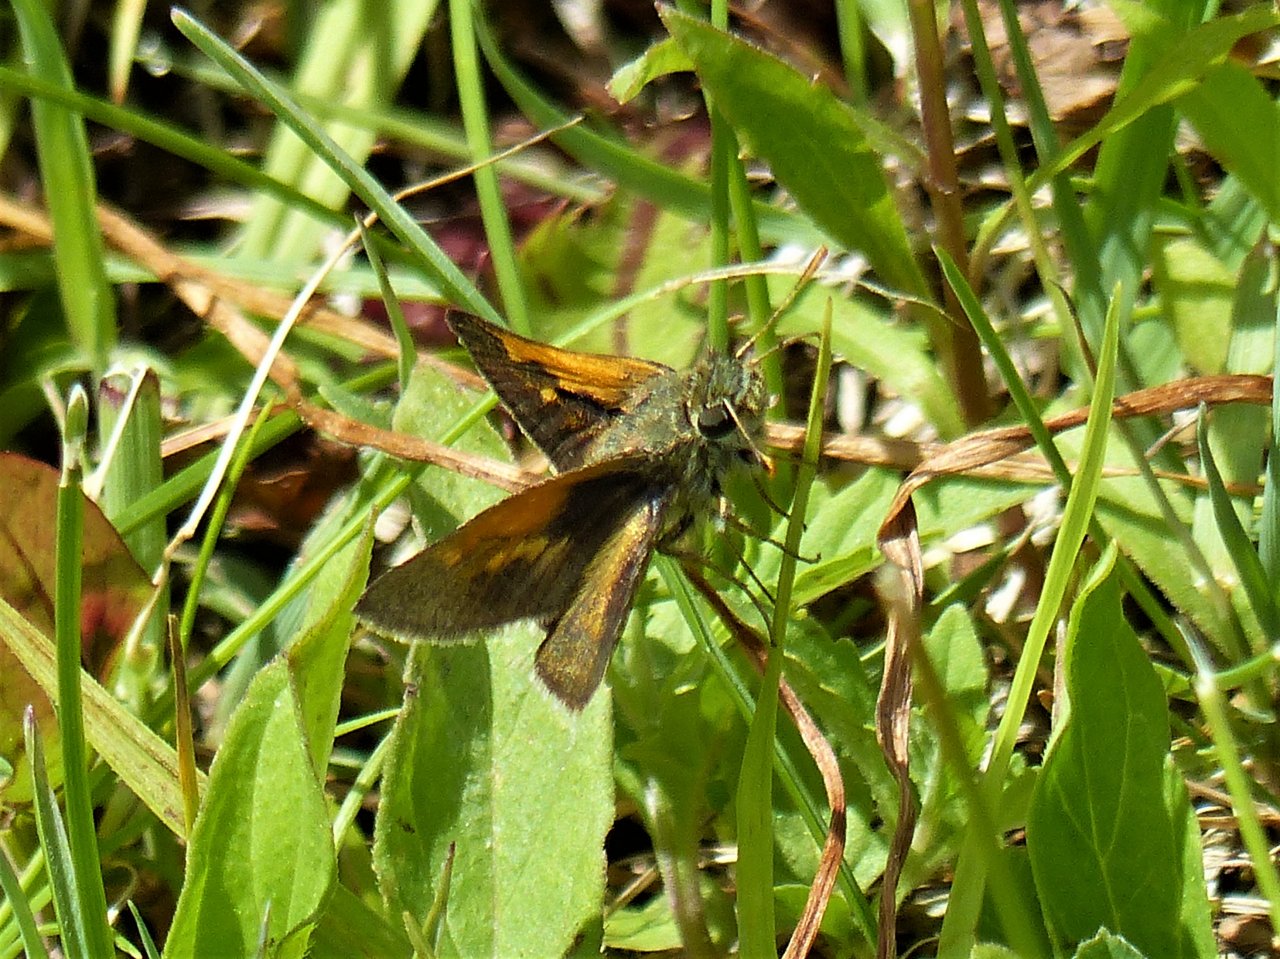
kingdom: Animalia
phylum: Arthropoda
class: Insecta
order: Lepidoptera
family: Hesperiidae
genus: Polites
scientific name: Polites themistocles
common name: Tawny-edged Skipper
